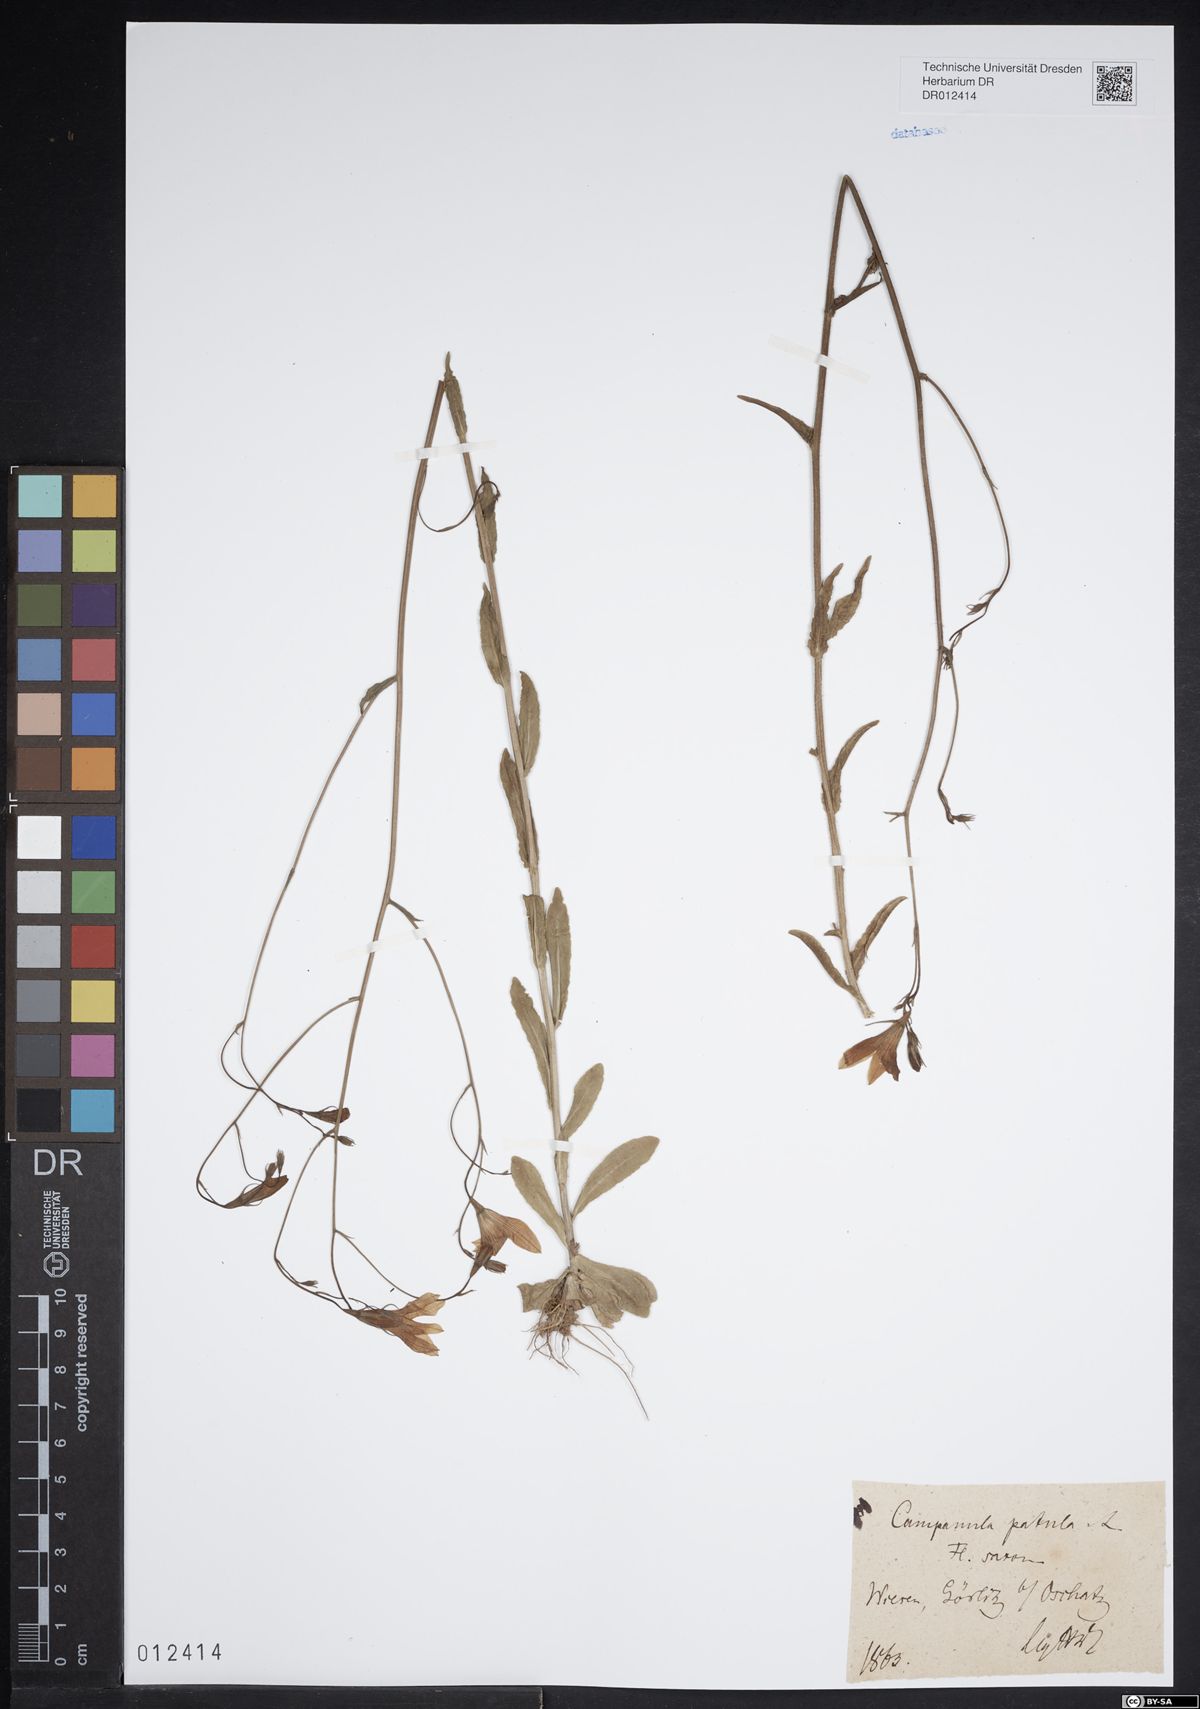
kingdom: Plantae
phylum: Tracheophyta
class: Magnoliopsida
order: Asterales
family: Campanulaceae
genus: Campanula
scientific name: Campanula patula
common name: Spreading bellflower
